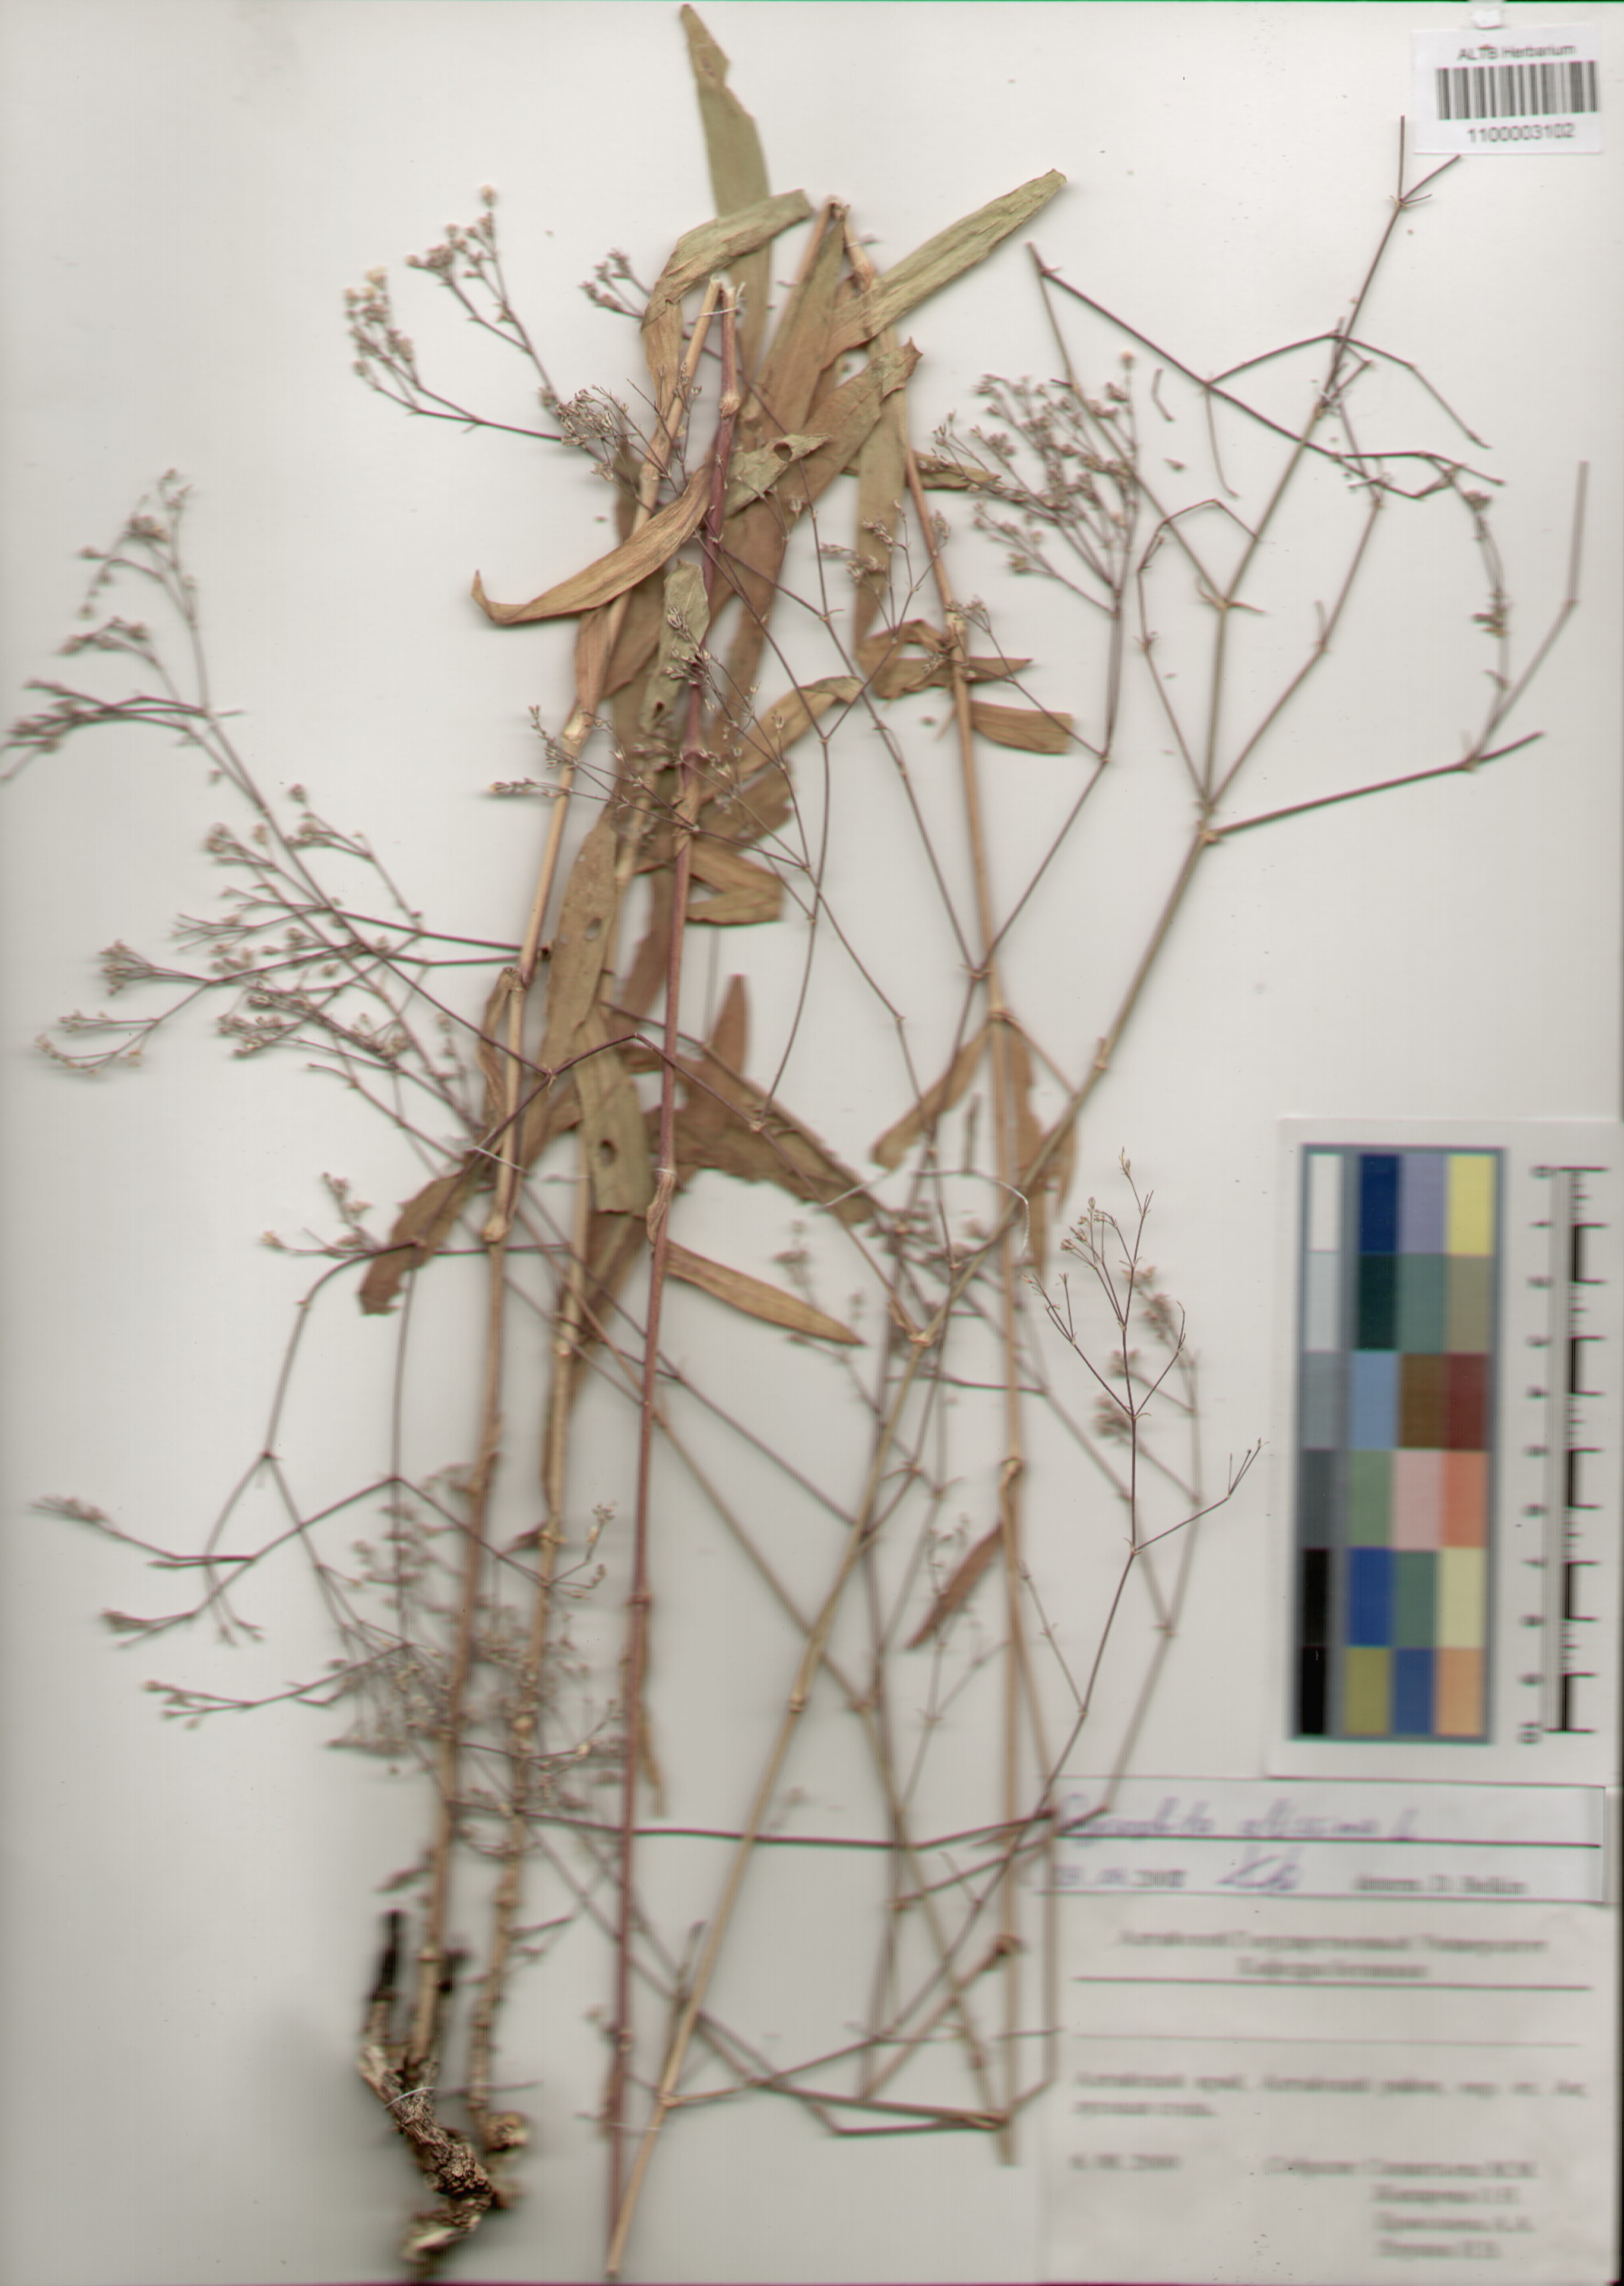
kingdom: Plantae
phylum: Tracheophyta
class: Magnoliopsida
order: Caryophyllales
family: Caryophyllaceae
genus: Gypsophila
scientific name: Gypsophila altissima
